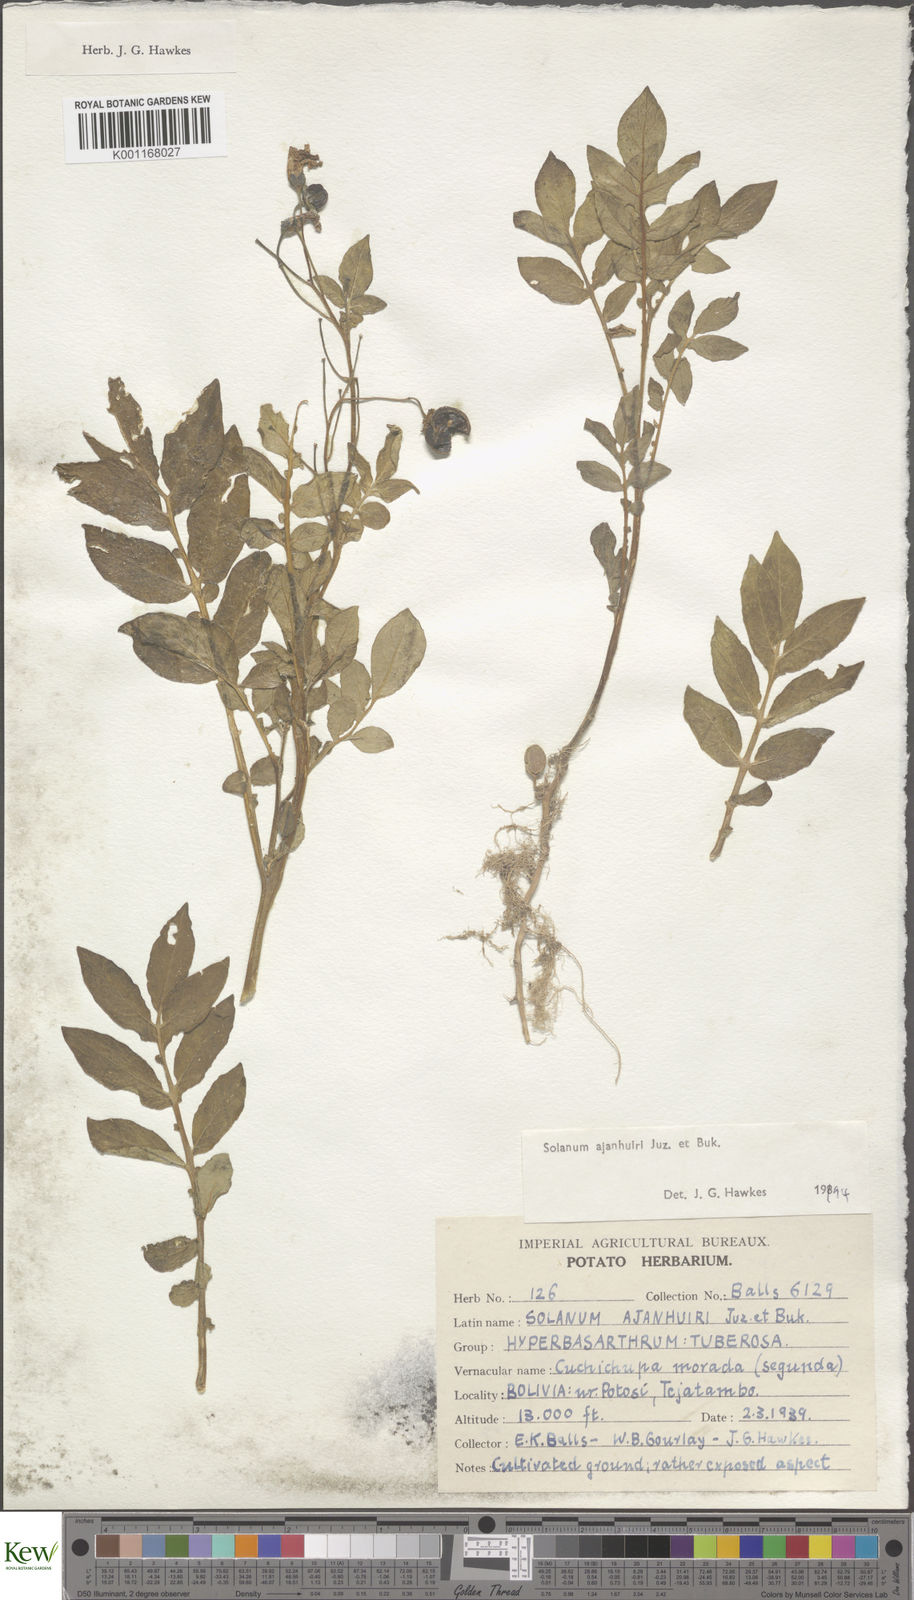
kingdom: Plantae
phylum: Tracheophyta
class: Magnoliopsida
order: Solanales
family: Solanaceae
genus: Solanum
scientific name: Solanum ajanhuiri
